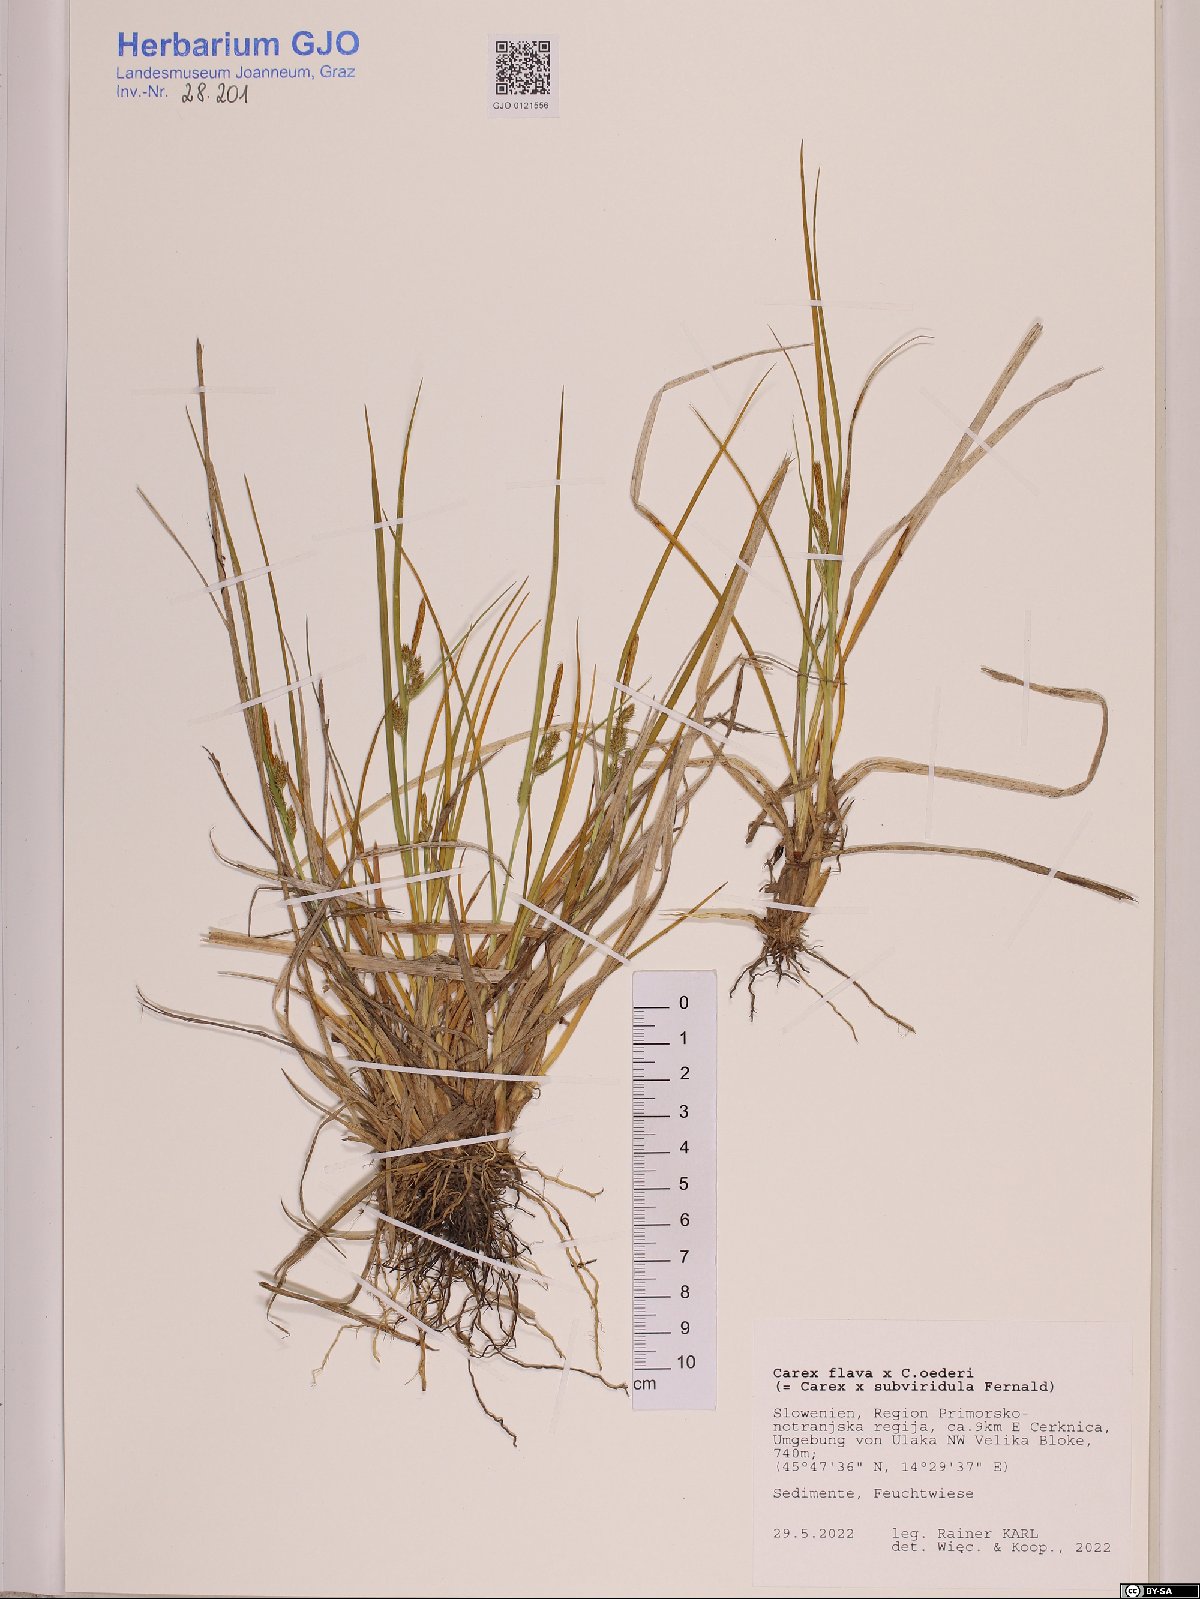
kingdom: Plantae
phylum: Tracheophyta
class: Liliopsida
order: Poales
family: Cyperaceae
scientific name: Cyperaceae
